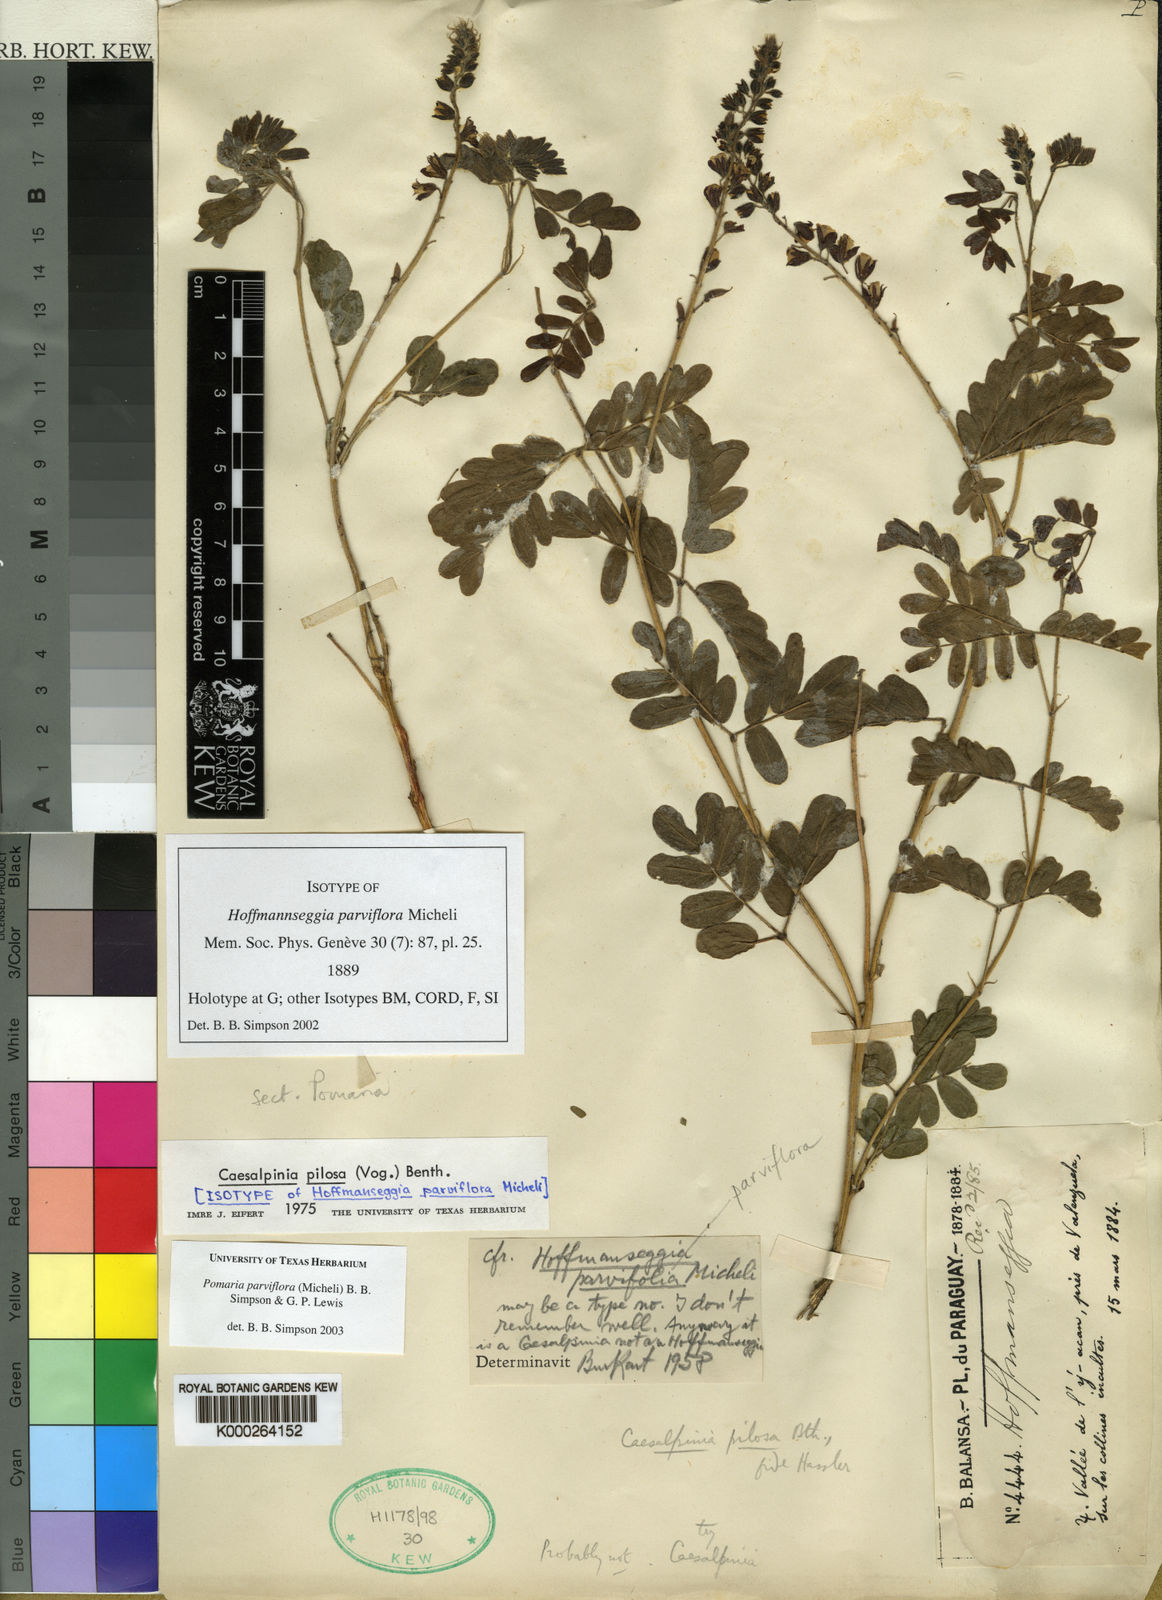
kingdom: Plantae
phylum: Tracheophyta
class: Magnoliopsida
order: Fabales
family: Fabaceae
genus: Hoffmannseggia
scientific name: Hoffmannseggia
